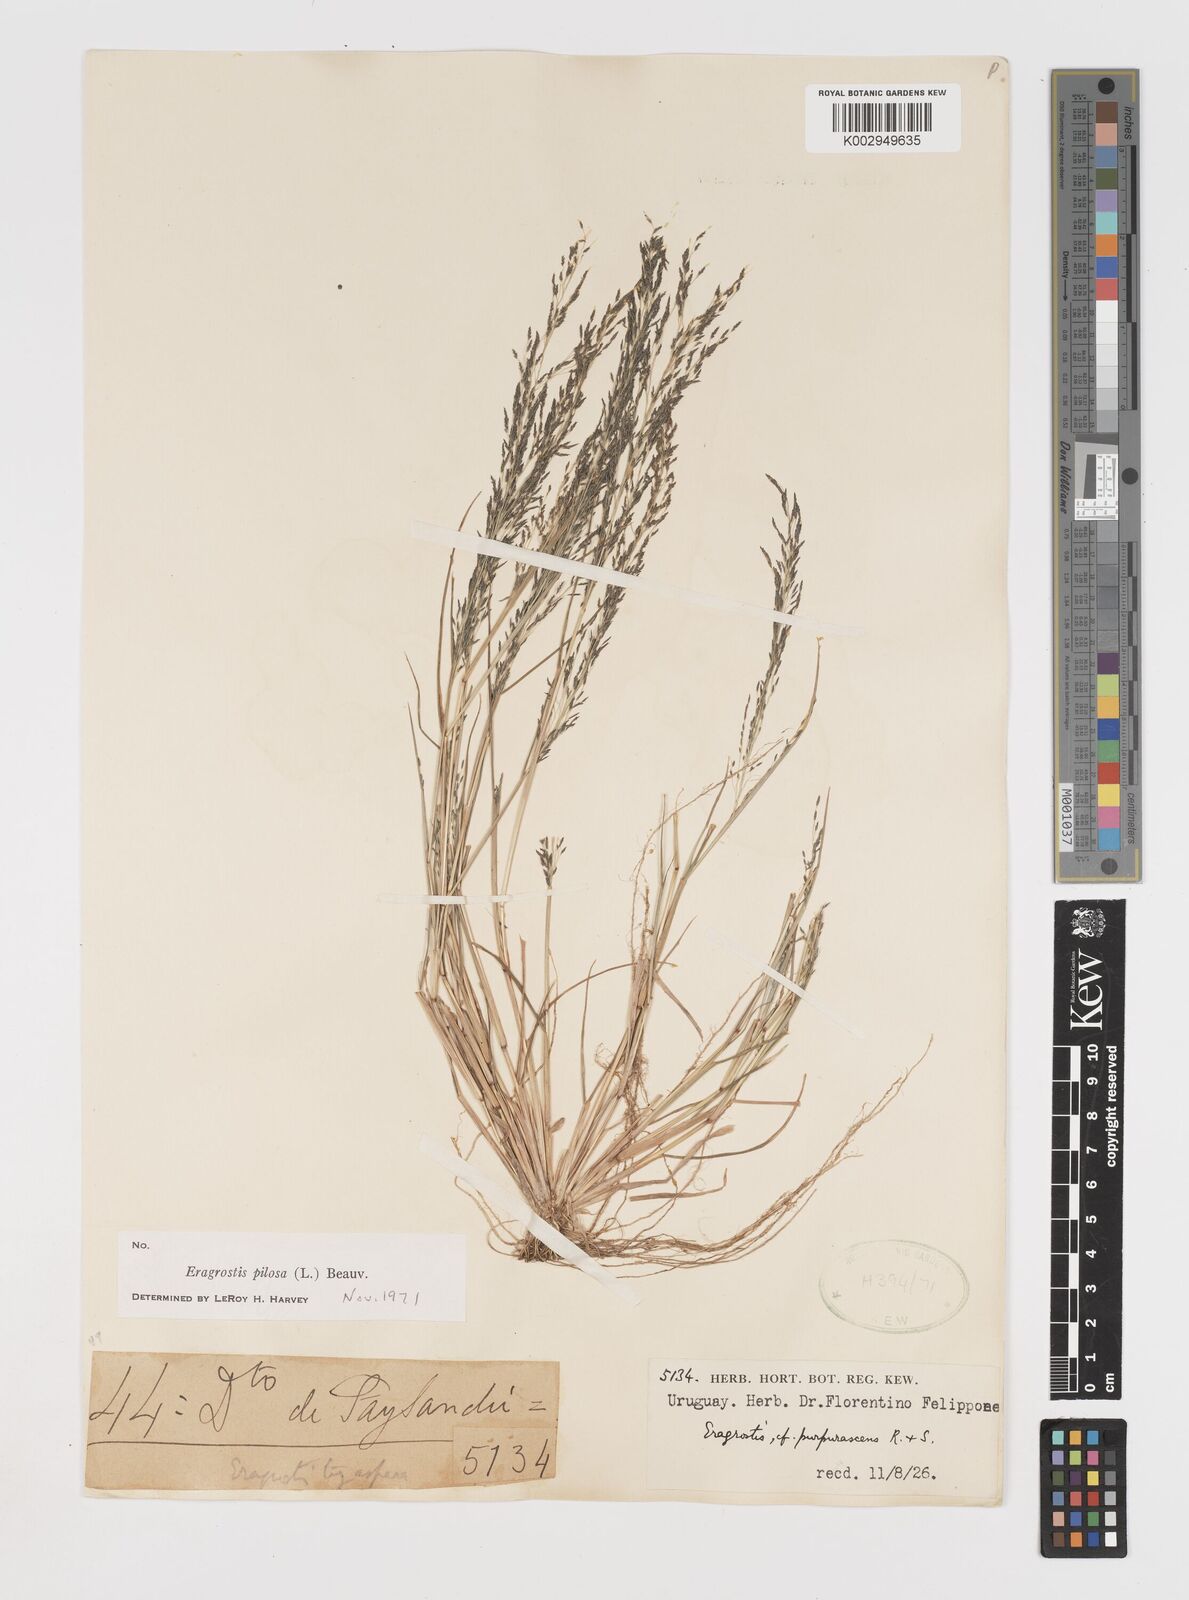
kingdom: Plantae
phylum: Tracheophyta
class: Liliopsida
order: Poales
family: Poaceae
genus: Eragrostis
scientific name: Eragrostis pilosa
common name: Indian lovegrass
